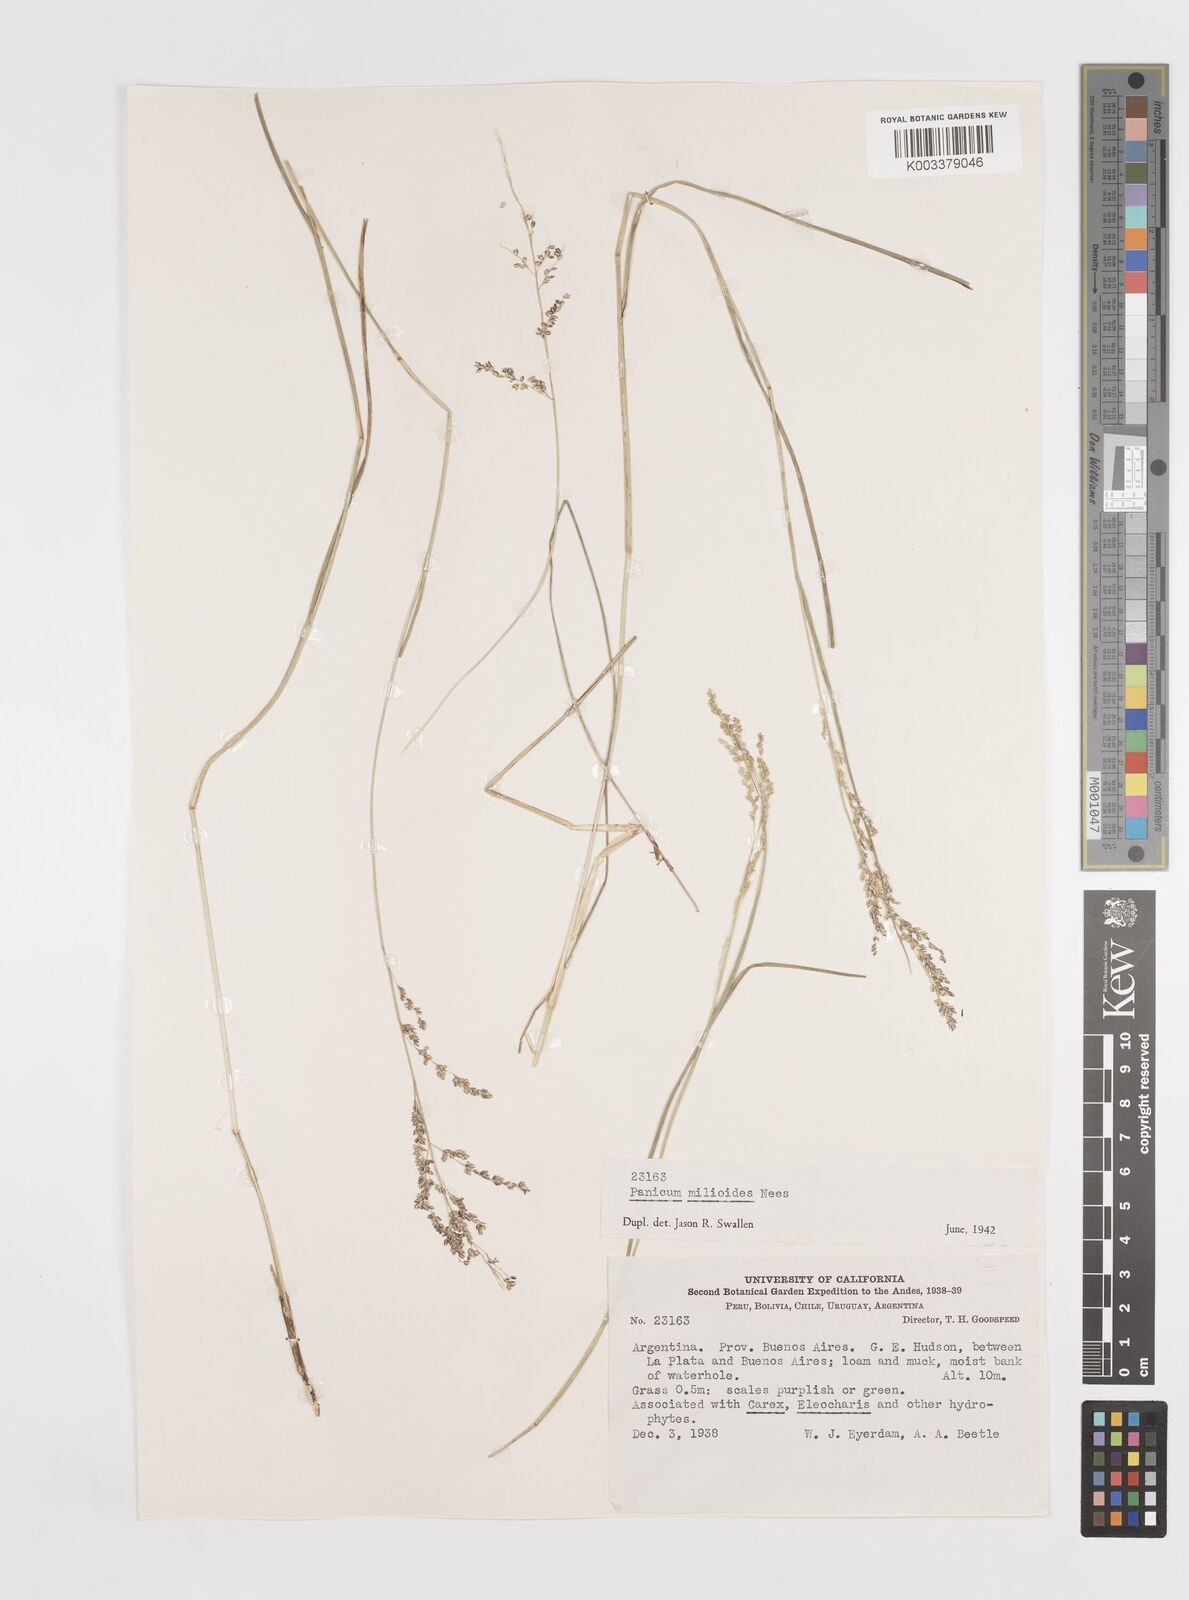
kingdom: Plantae
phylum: Tracheophyta
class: Liliopsida
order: Poales
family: Poaceae
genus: Steinchisma
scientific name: Steinchisma hians
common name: Gaping panic grass
